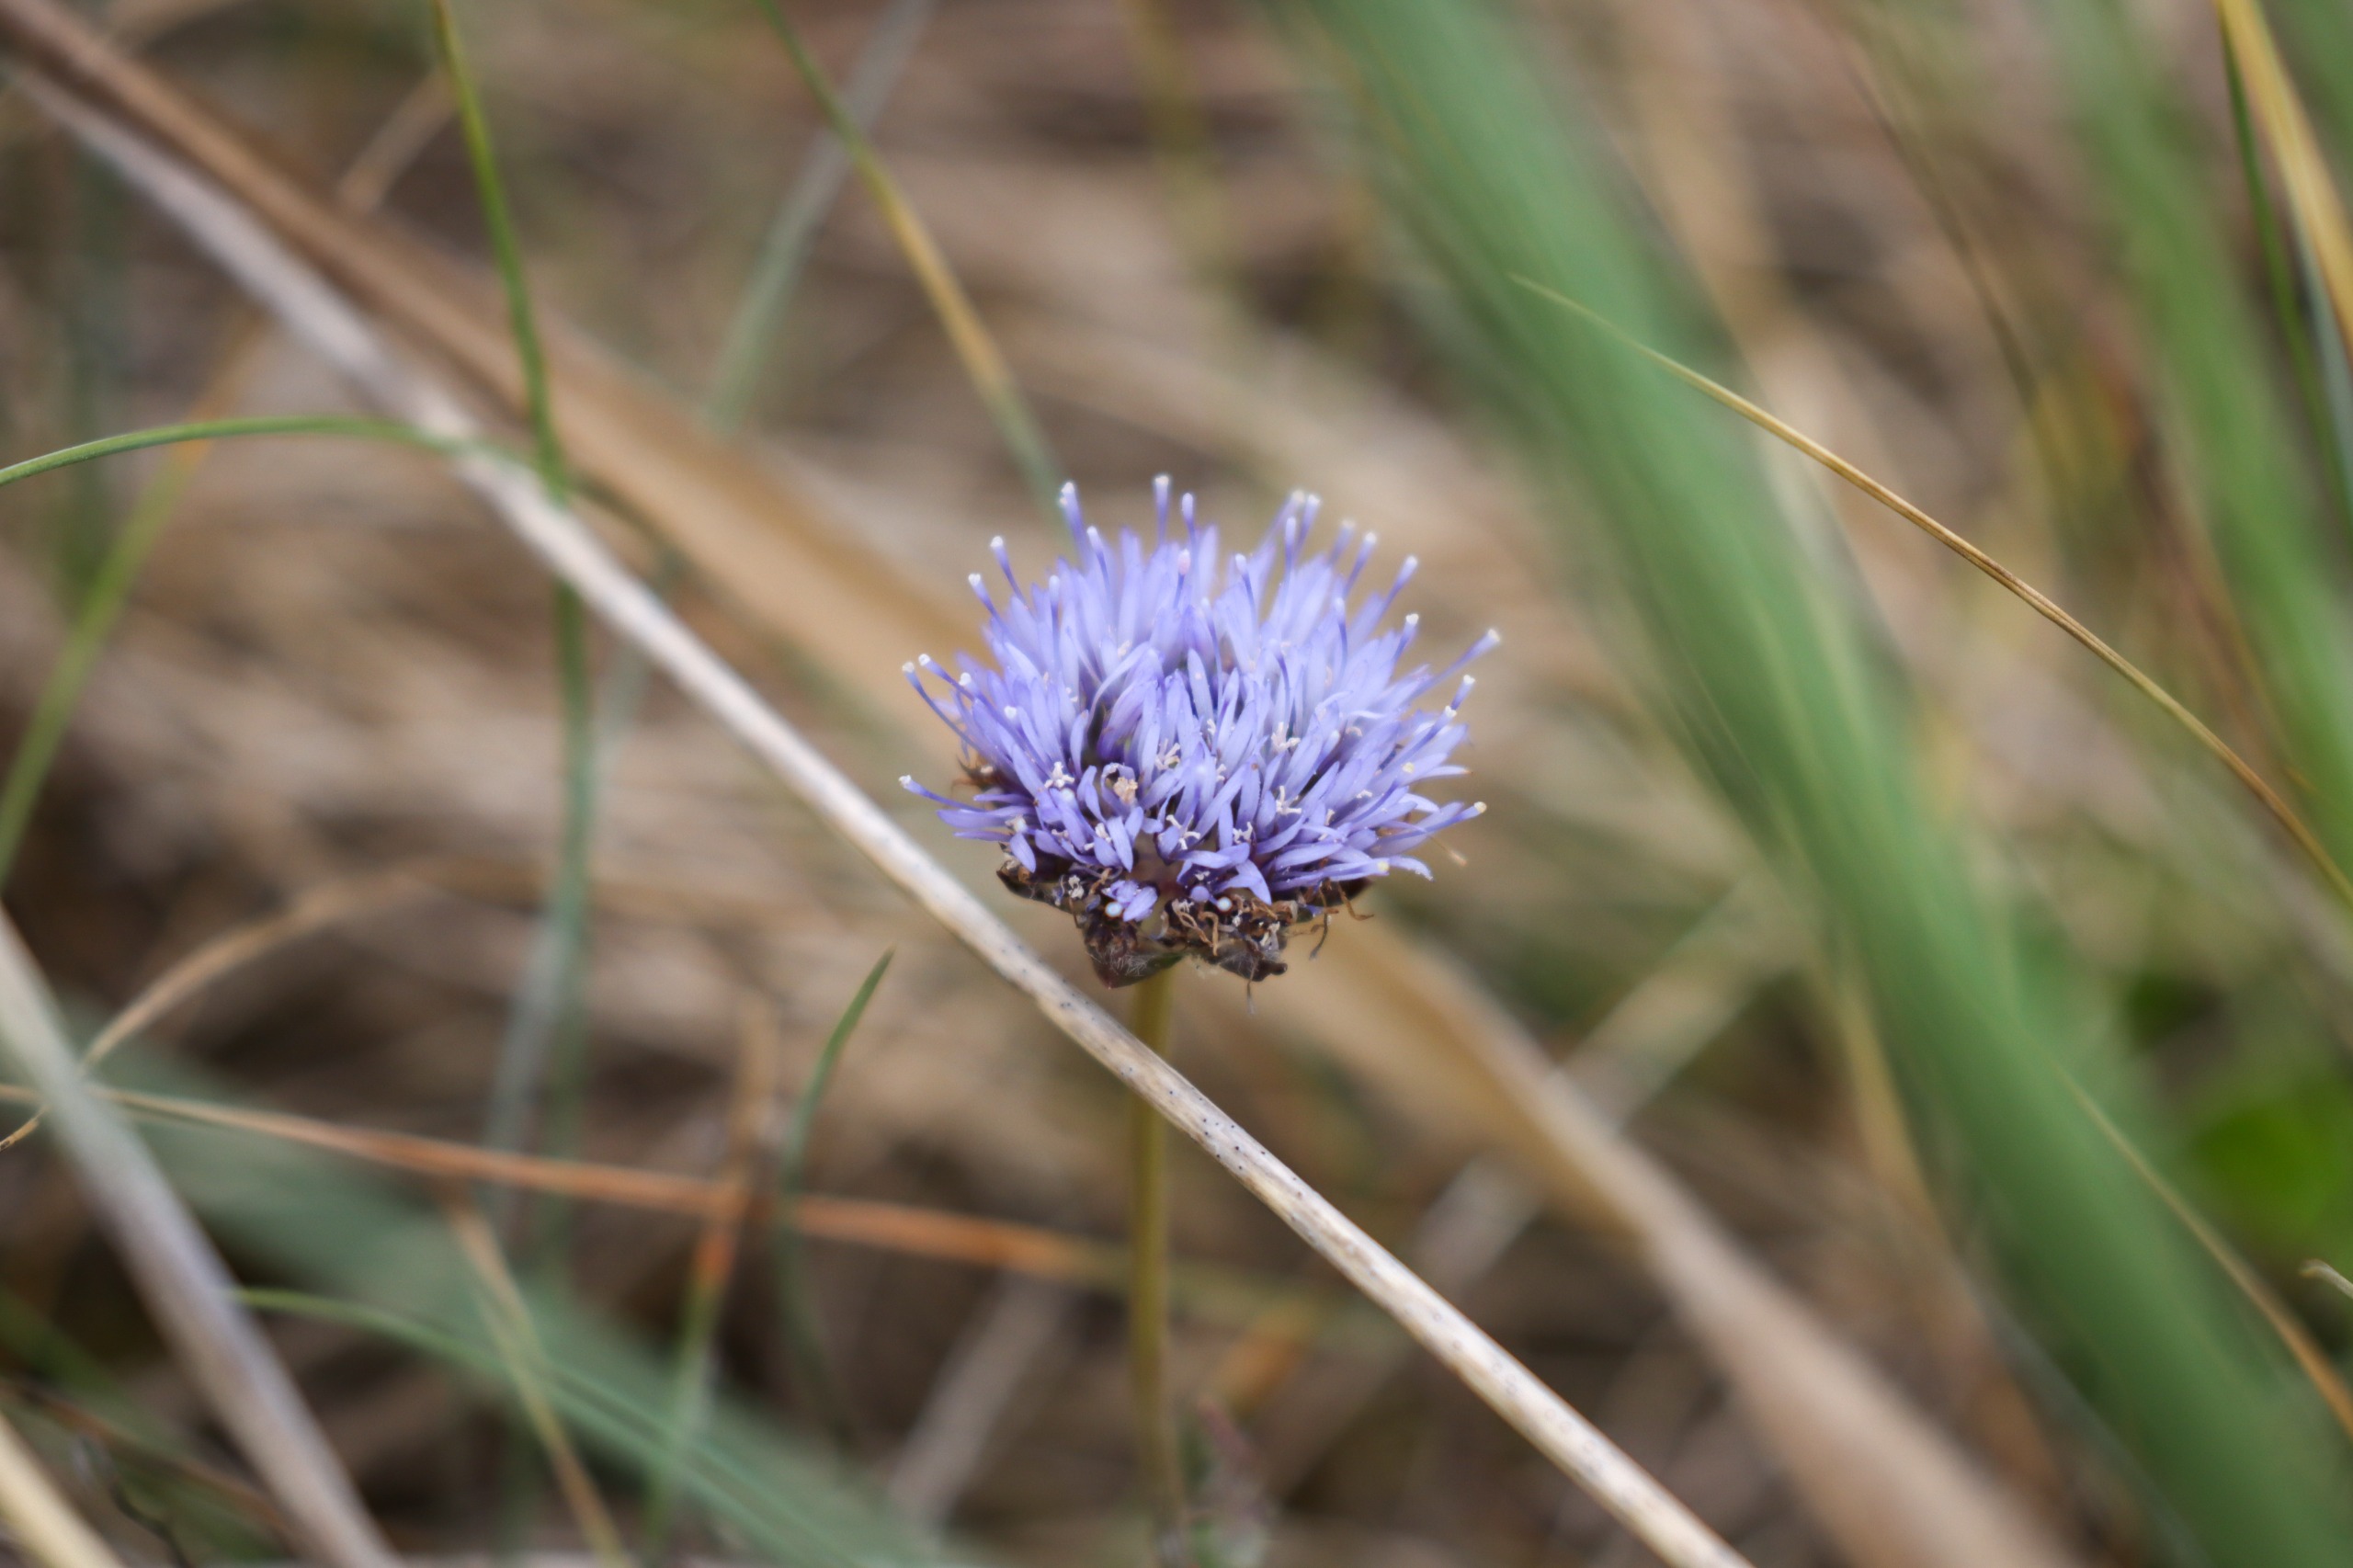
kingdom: Plantae
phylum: Tracheophyta
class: Magnoliopsida
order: Asterales
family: Campanulaceae
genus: Jasione
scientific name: Jasione montana
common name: Blåmunke
